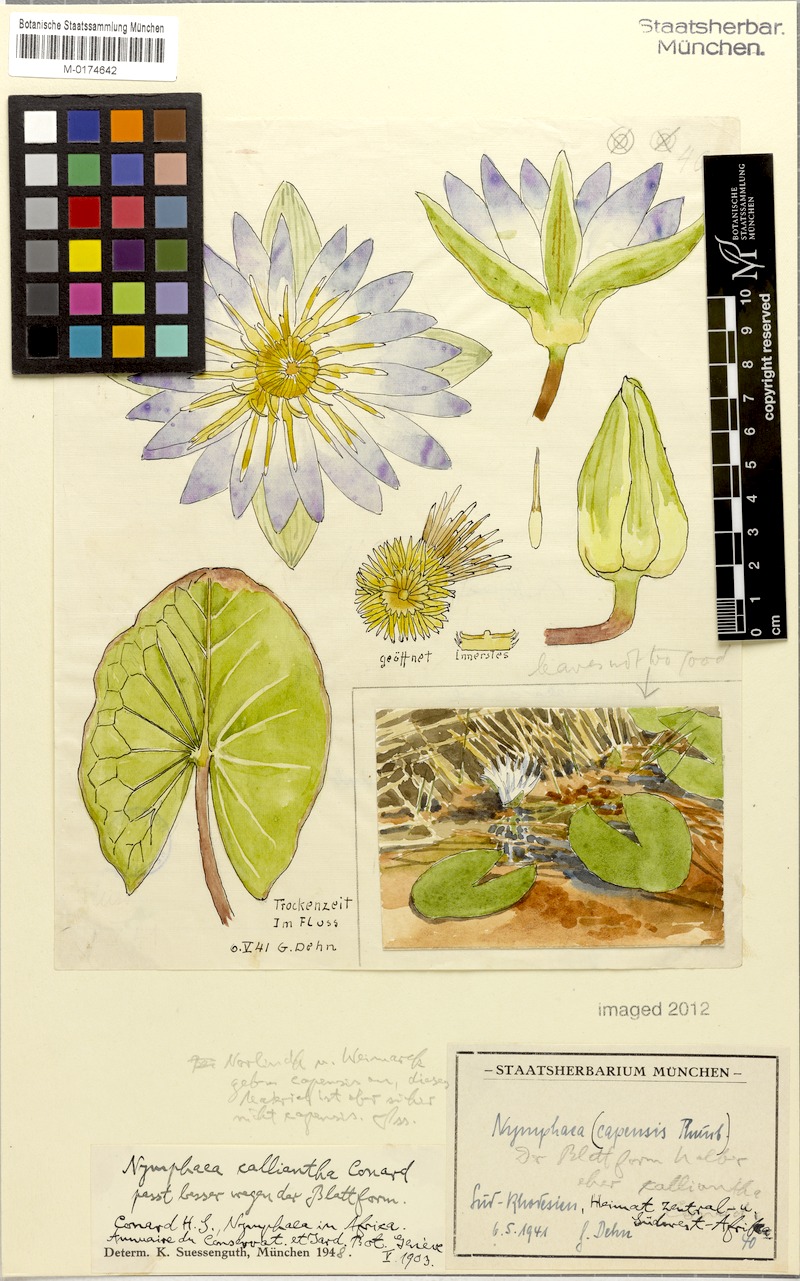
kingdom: Plantae
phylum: Tracheophyta
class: Magnoliopsida
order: Nymphaeales
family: Nymphaeaceae
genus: Nymphaea
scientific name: Nymphaea nouchali
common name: Blue lotus
